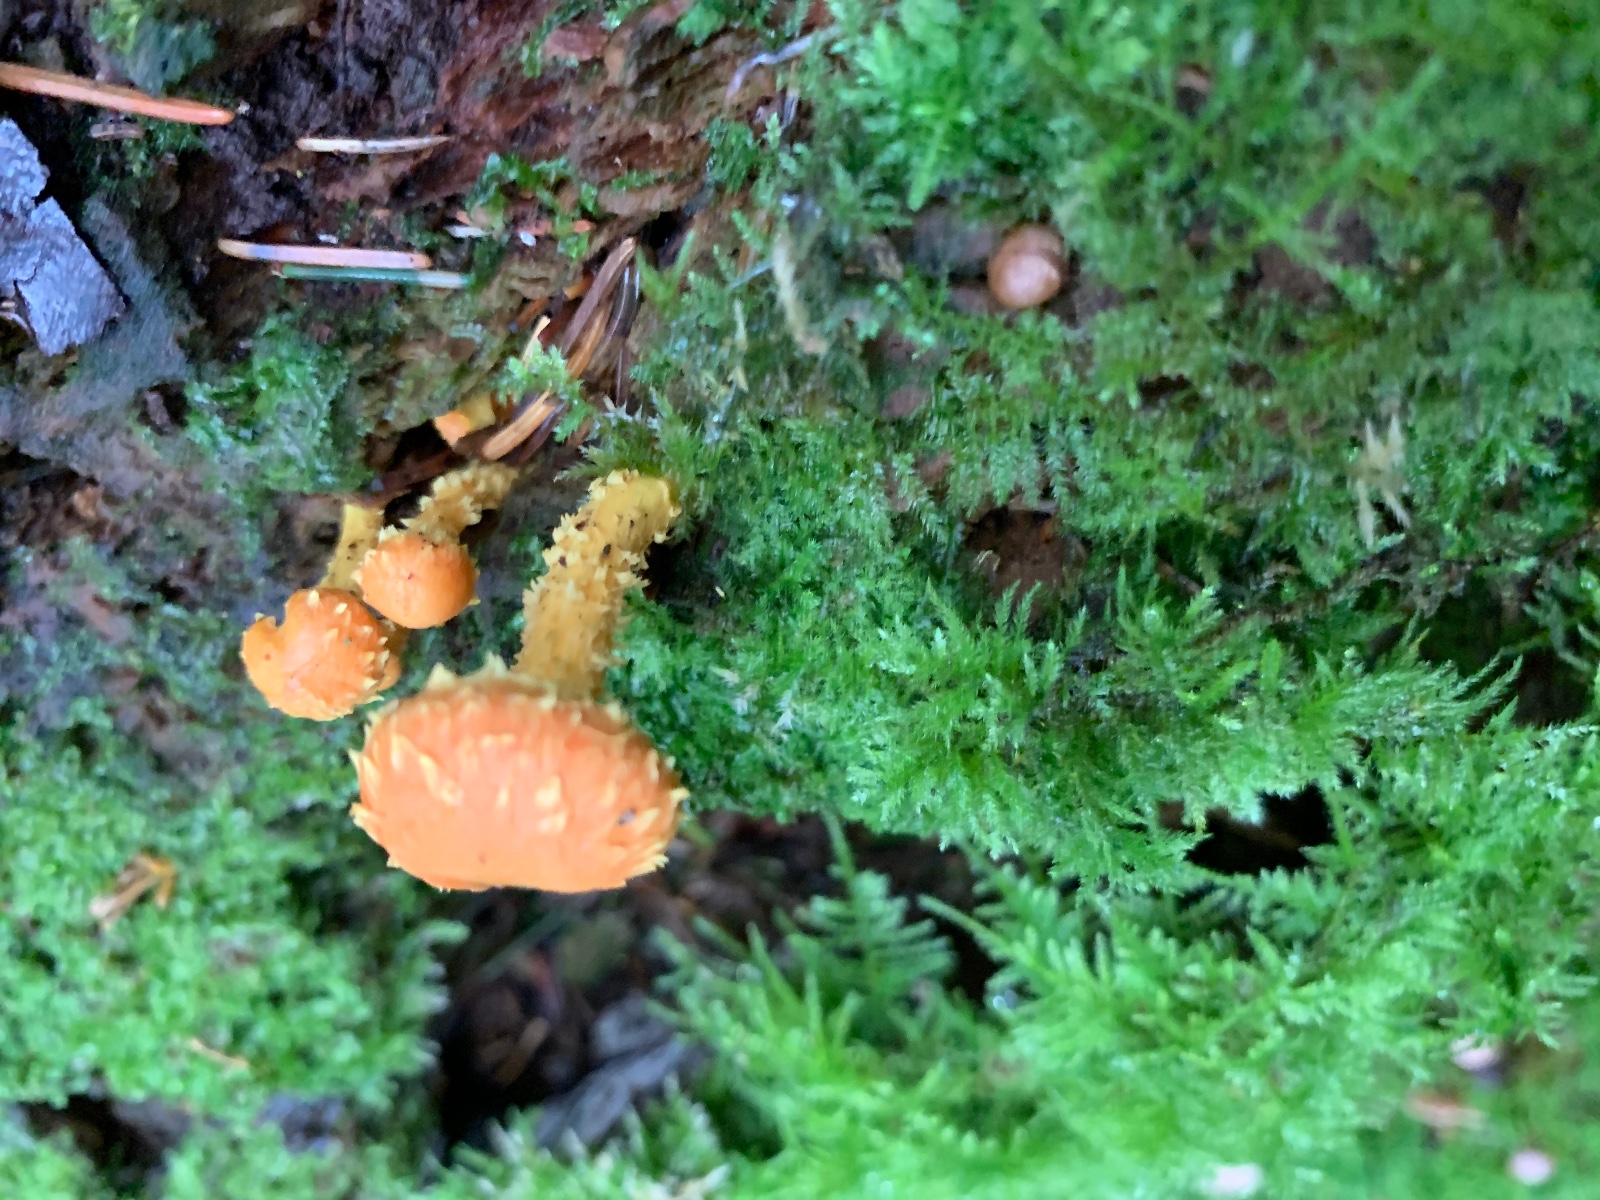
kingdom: Fungi
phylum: Basidiomycota
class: Agaricomycetes
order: Agaricales
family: Strophariaceae
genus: Pholiota
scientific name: Pholiota flammans
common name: flamme-skælhat
